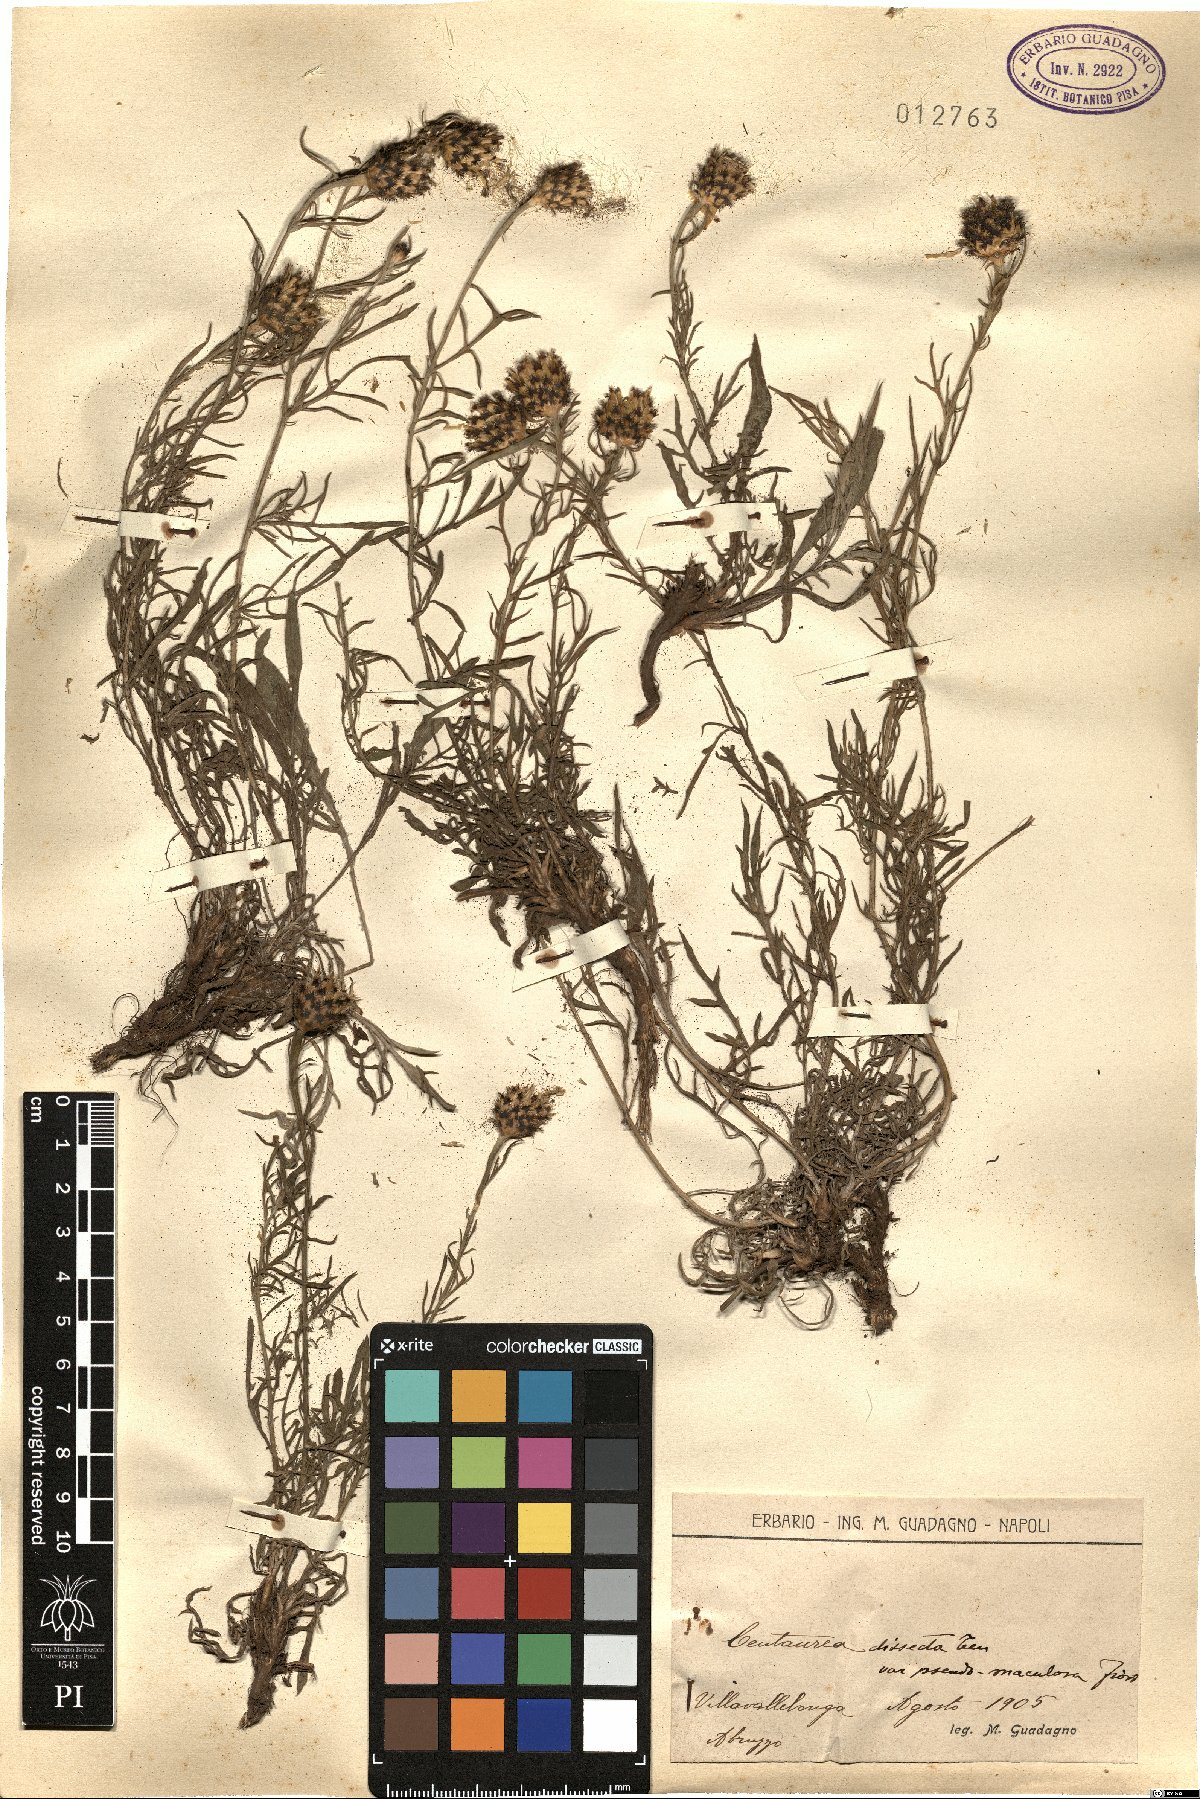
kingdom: Plantae
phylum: Tracheophyta
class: Magnoliopsida
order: Asterales
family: Asteraceae
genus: Centaurea
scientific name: Centaurea tenorei
